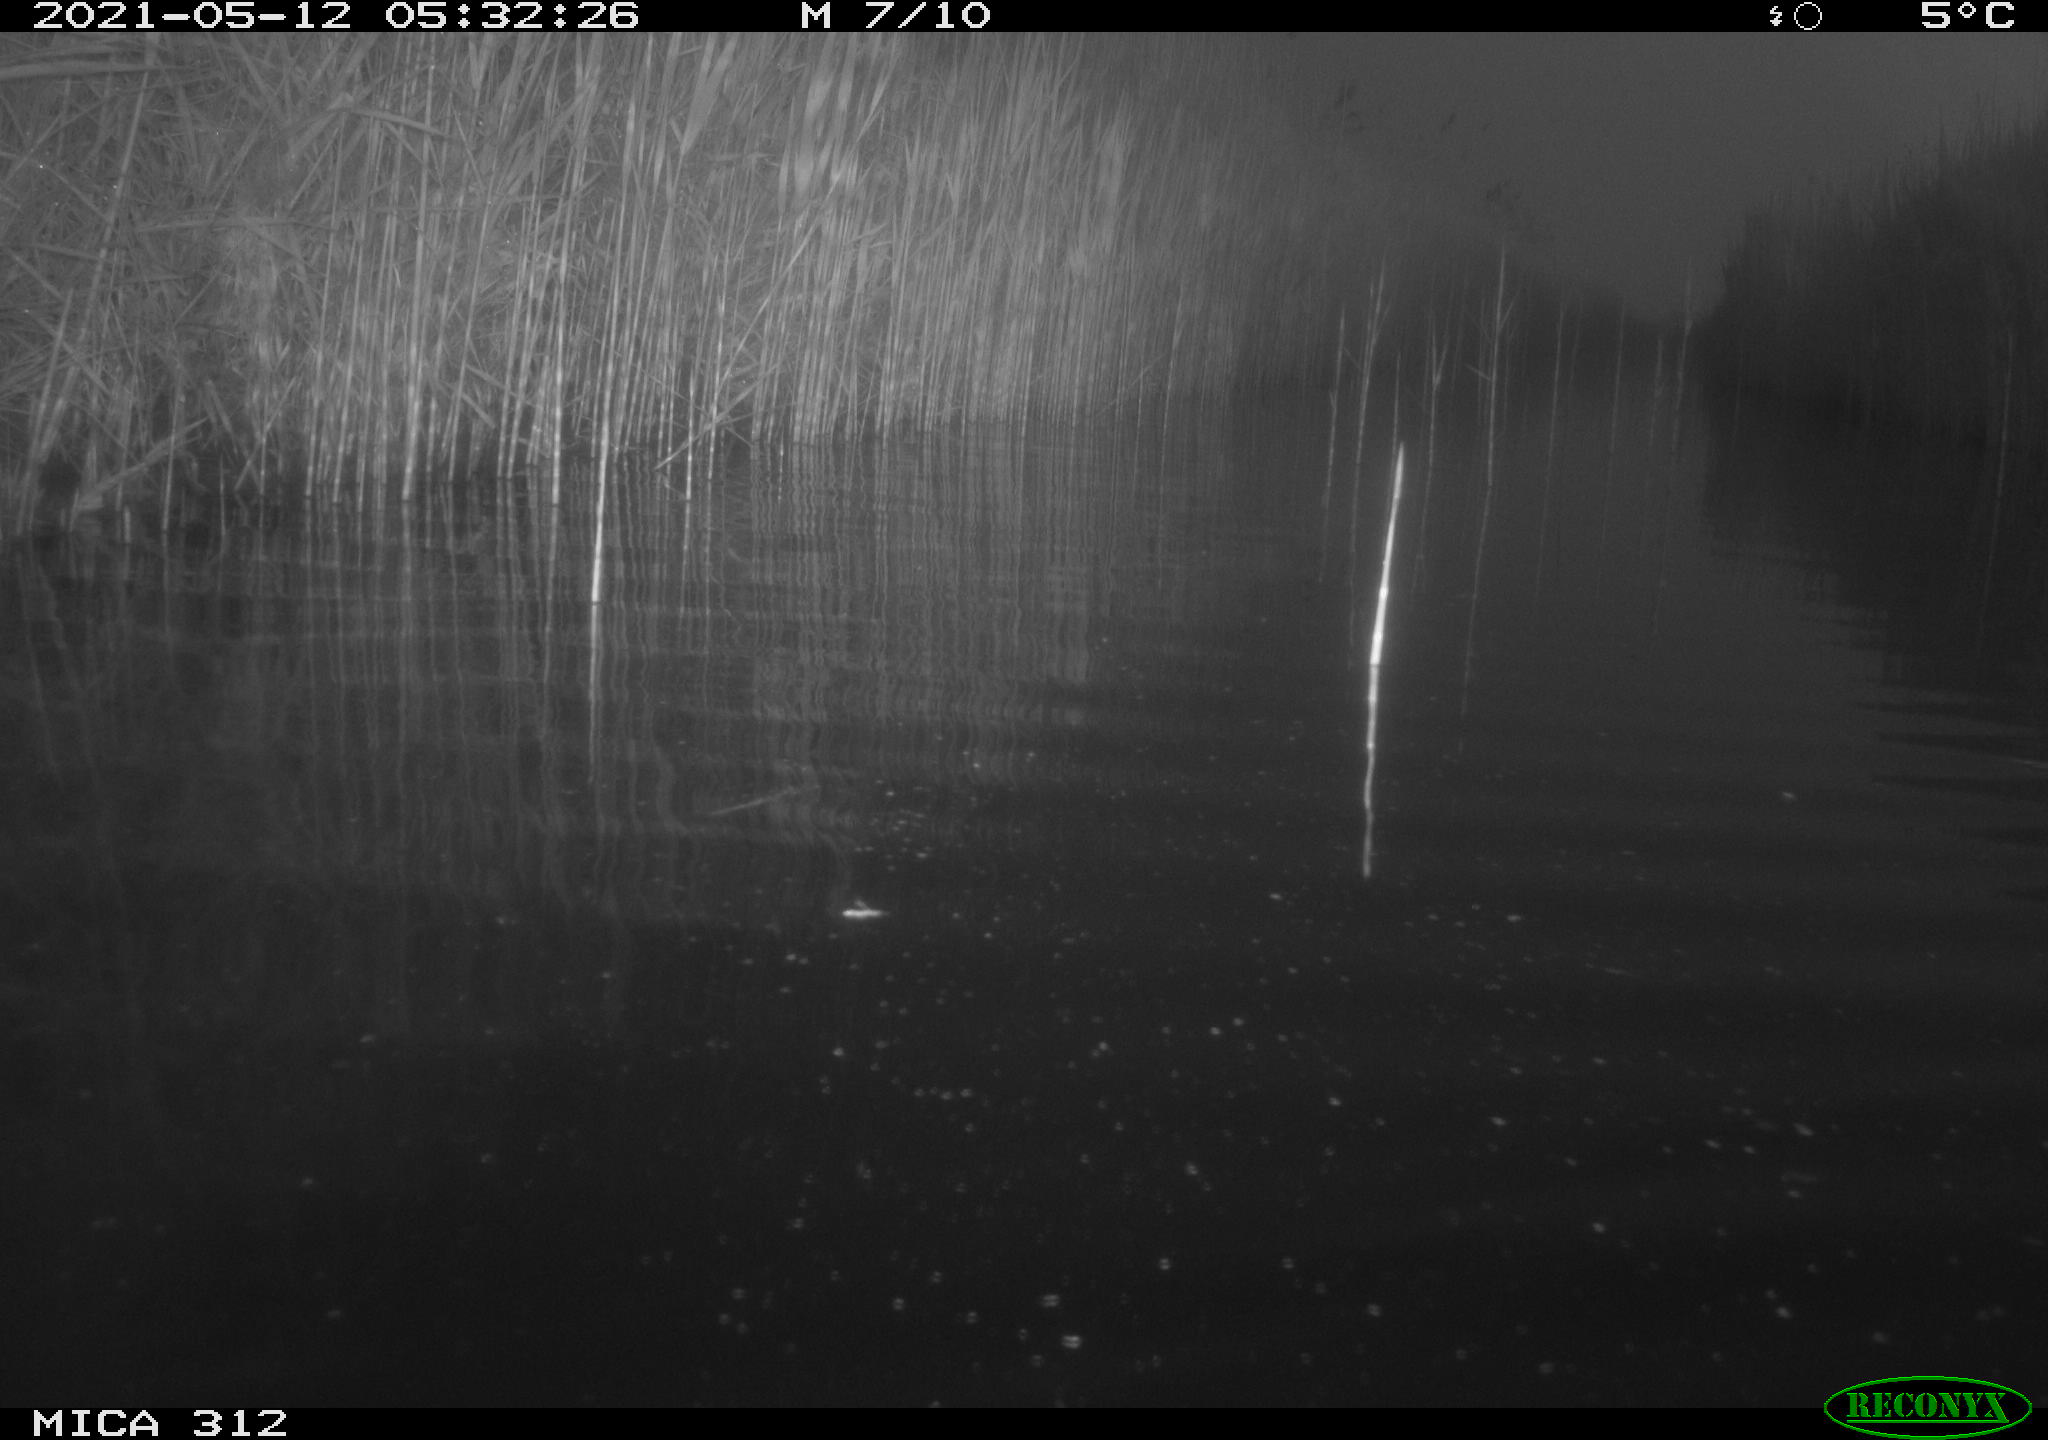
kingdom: Animalia
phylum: Chordata
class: Aves
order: Gruiformes
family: Rallidae
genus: Fulica
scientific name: Fulica atra
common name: Eurasian coot
